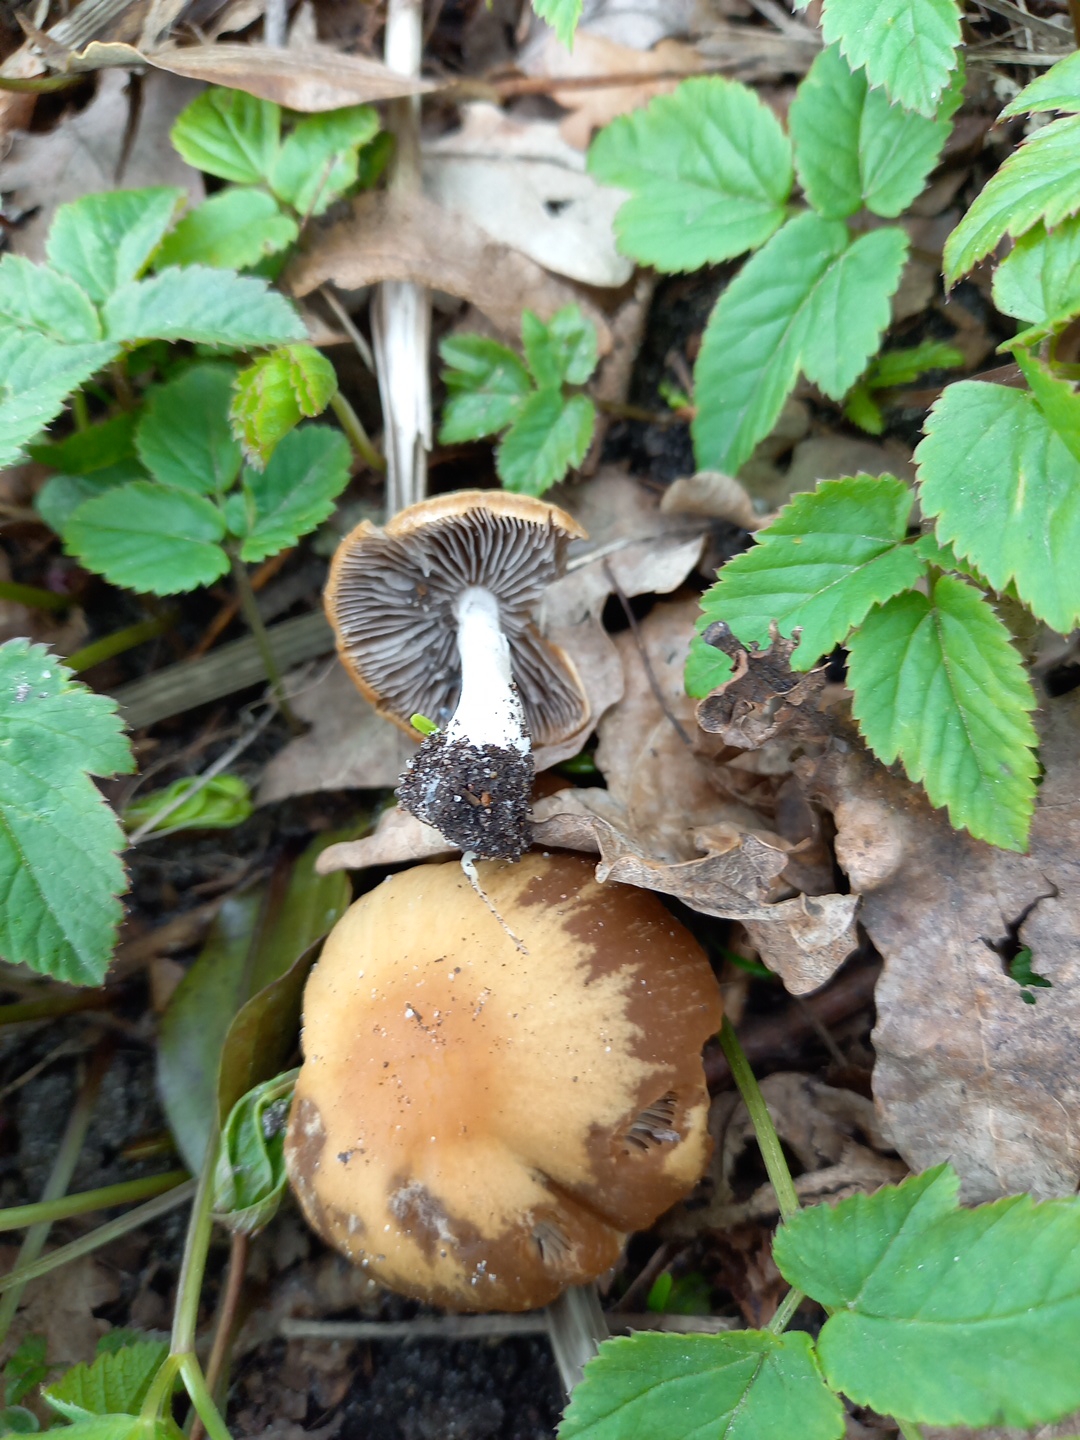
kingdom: Fungi
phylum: Basidiomycota
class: Agaricomycetes
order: Agaricales
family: Psathyrellaceae
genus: Psathyrella
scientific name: Psathyrella
